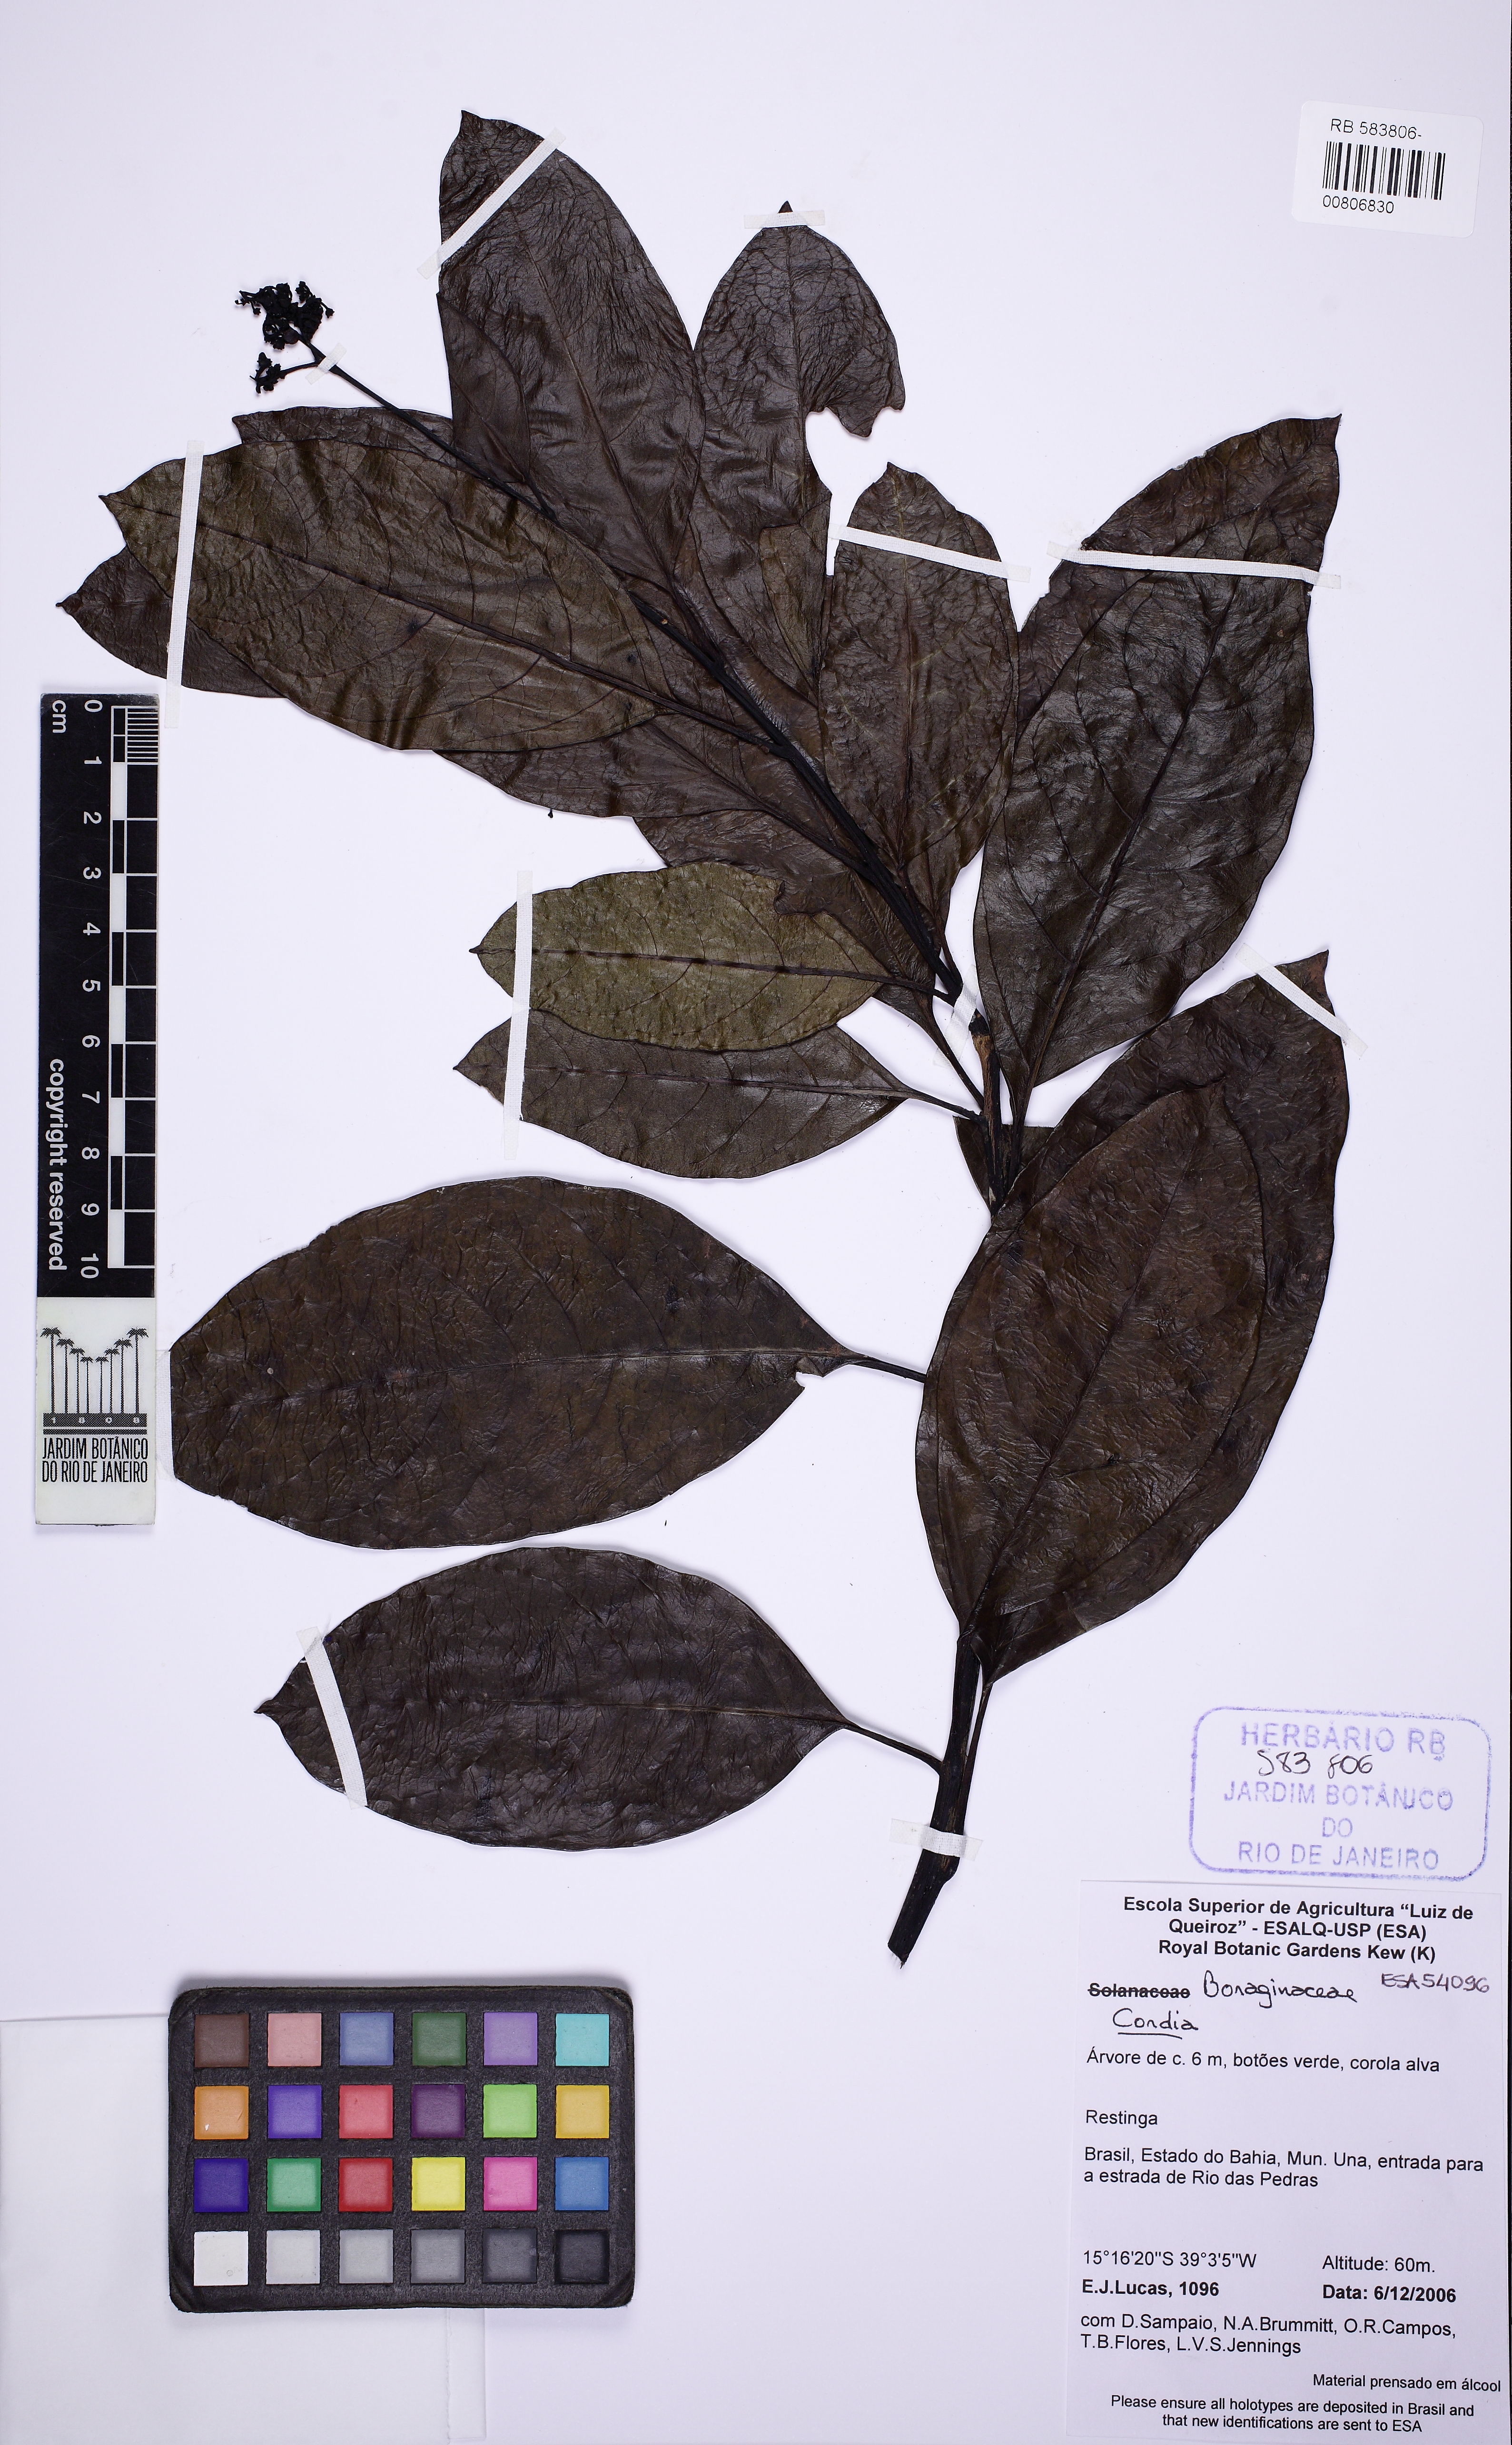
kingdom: Plantae
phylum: Tracheophyta
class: Magnoliopsida
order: Boraginales
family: Cordiaceae
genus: Cordia
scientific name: Cordia
